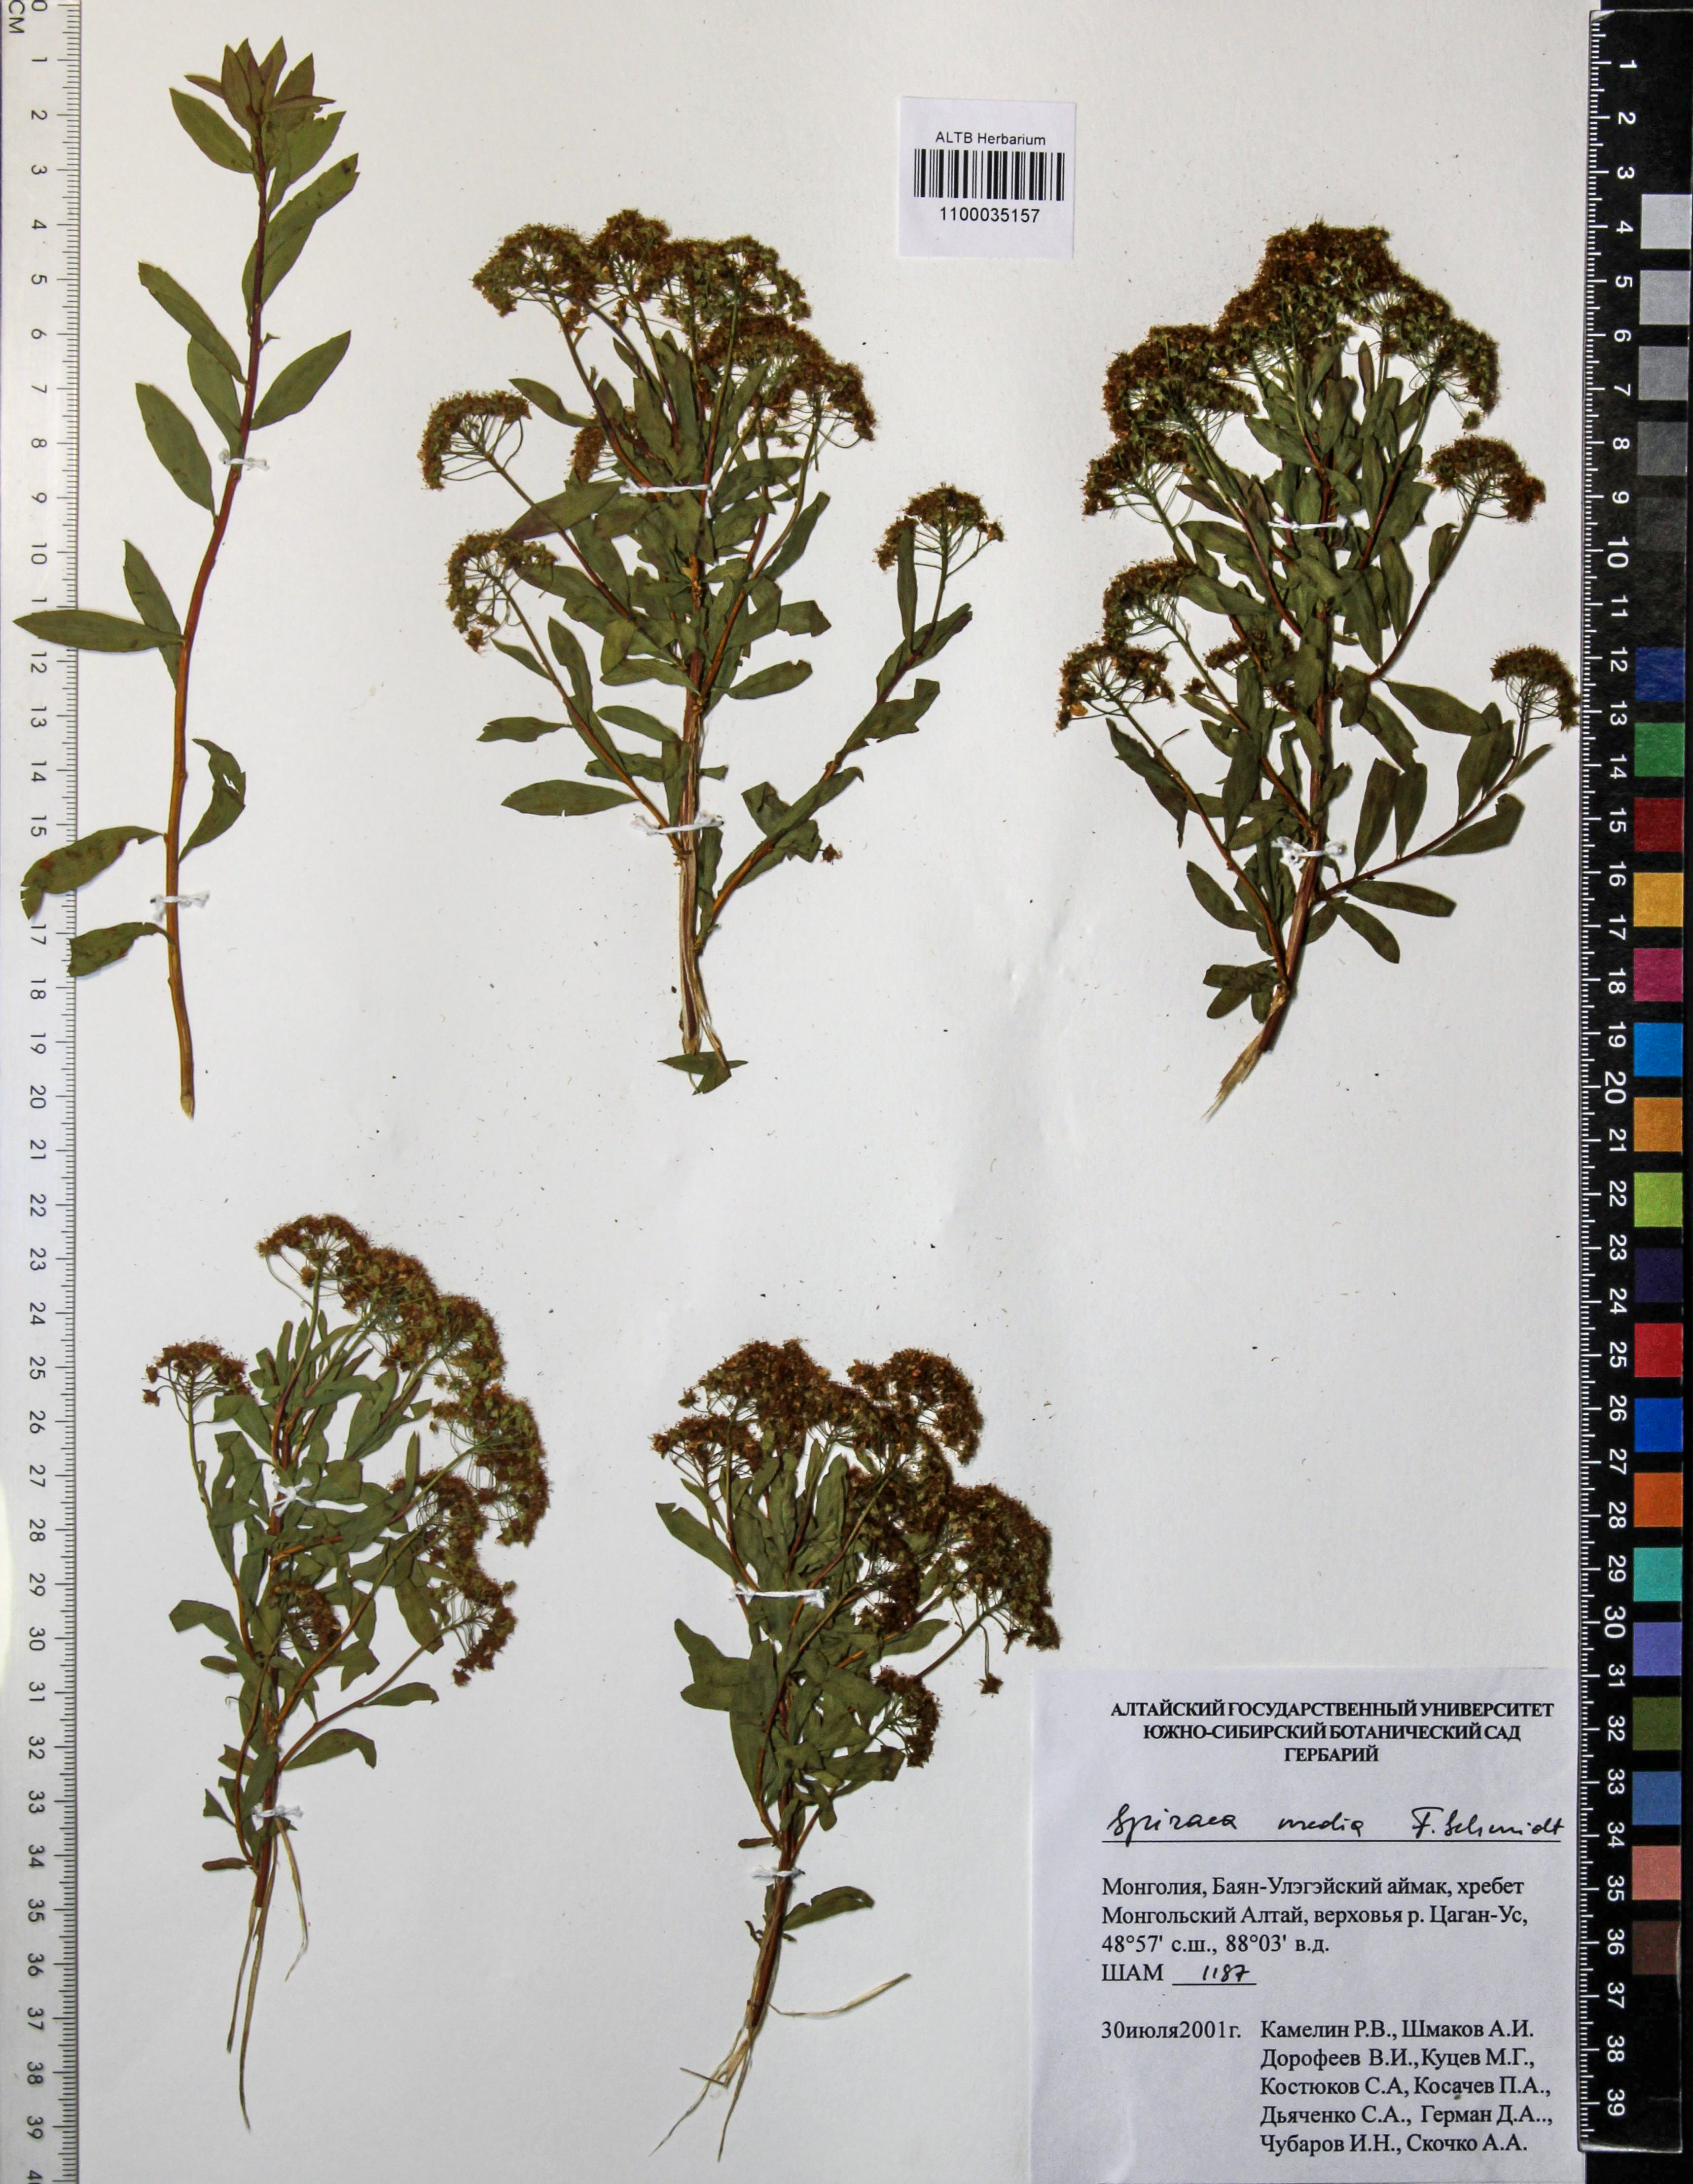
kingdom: Plantae
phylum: Tracheophyta
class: Magnoliopsida
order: Rosales
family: Rosaceae
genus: Spiraea
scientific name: Spiraea media
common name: Russian spiraea
